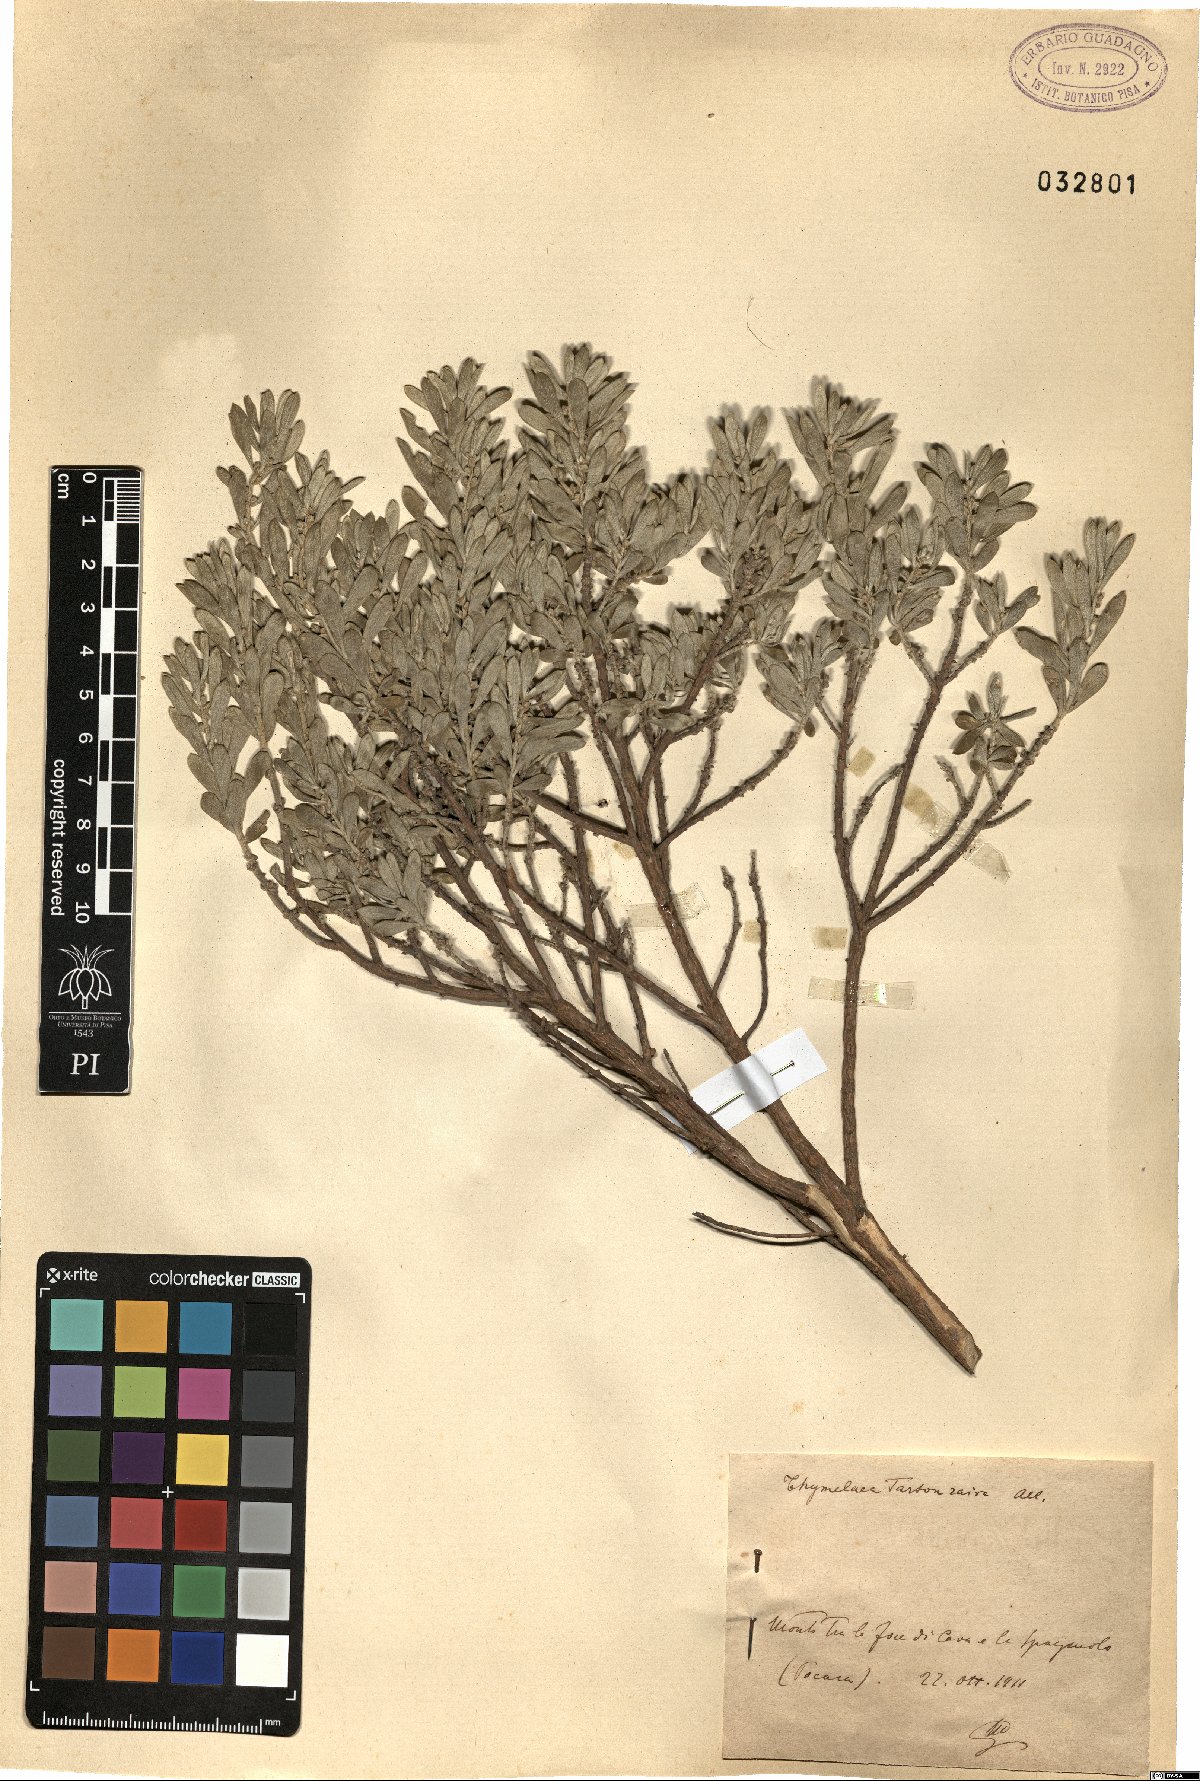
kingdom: Plantae
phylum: Tracheophyta
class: Magnoliopsida
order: Malvales
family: Thymelaeaceae
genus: Thymelaea
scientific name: Thymelaea tartonraira
